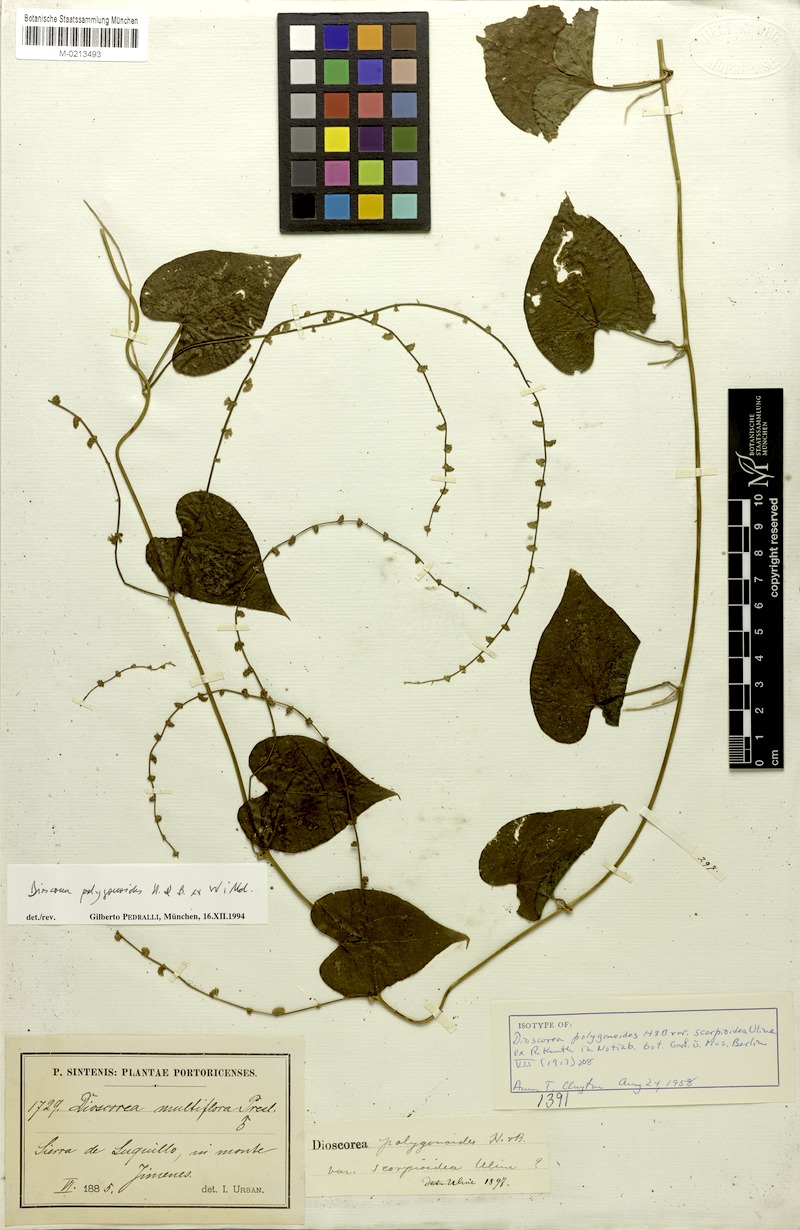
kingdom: Plantae
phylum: Tracheophyta
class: Liliopsida
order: Dioscoreales
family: Dioscoreaceae
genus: Dioscorea
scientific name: Dioscorea polygonoides
